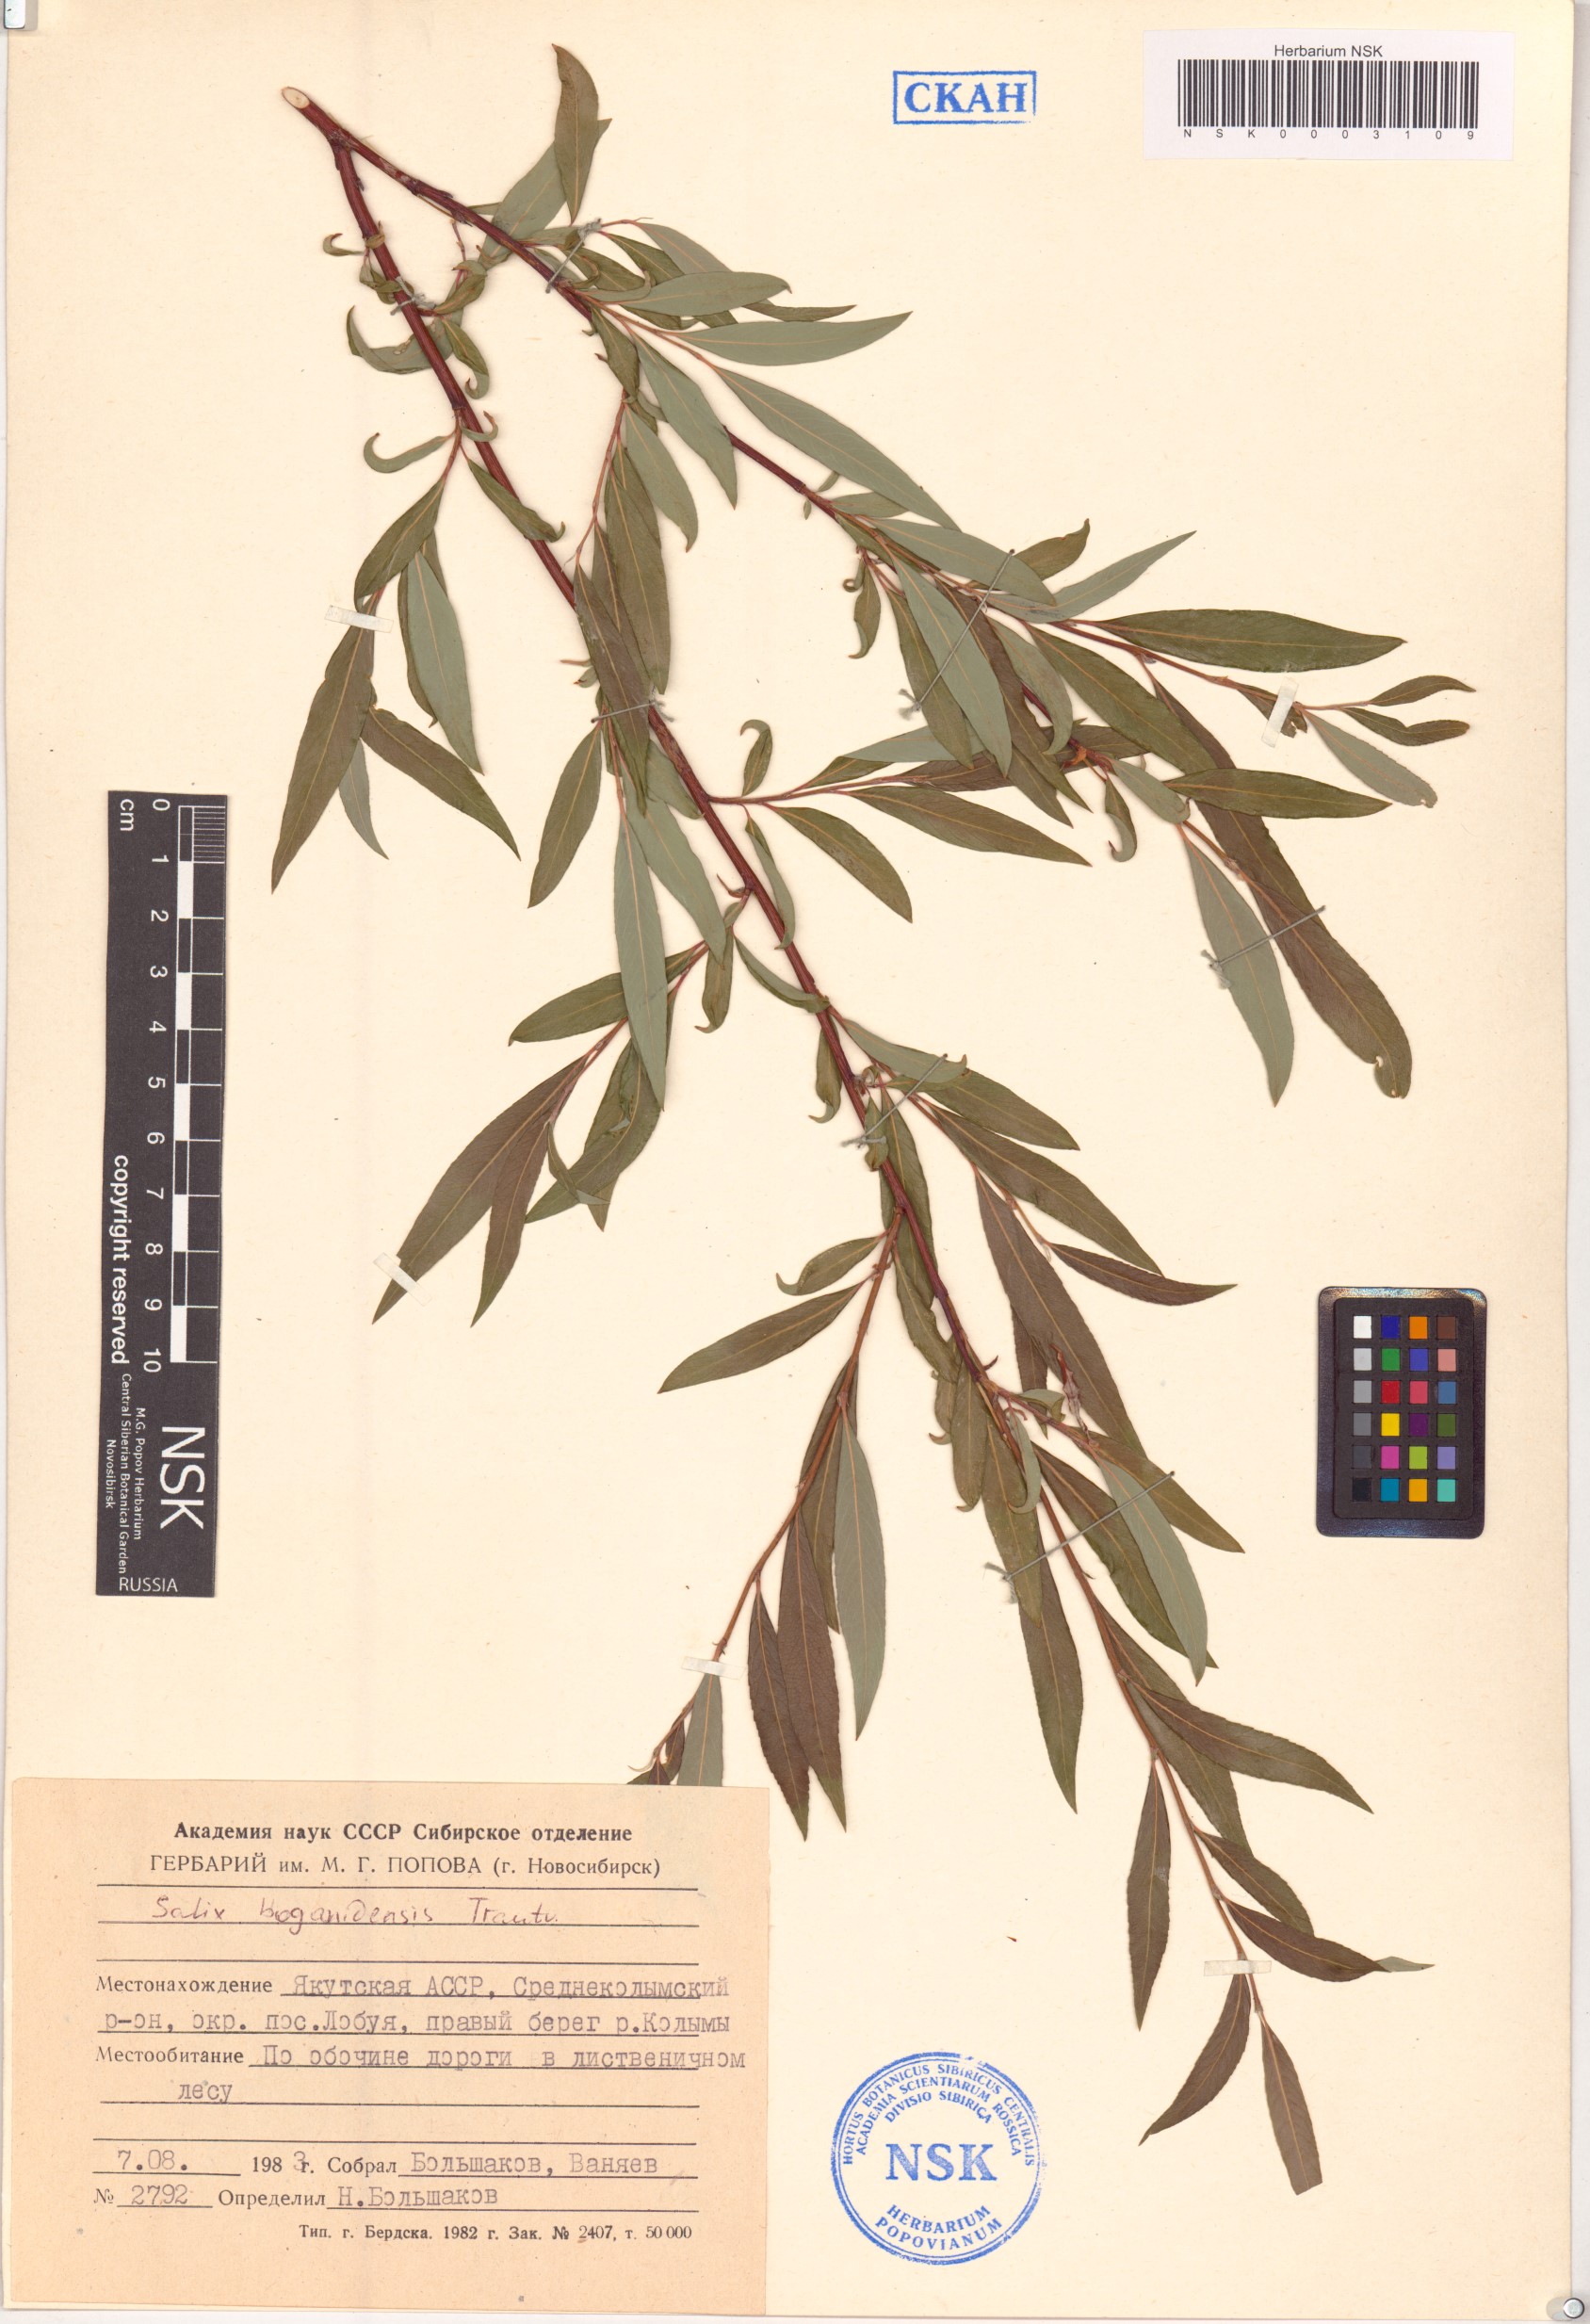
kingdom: Plantae
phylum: Tracheophyta
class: Magnoliopsida
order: Malpighiales
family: Salicaceae
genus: Salix
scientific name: Salix boganidensis
